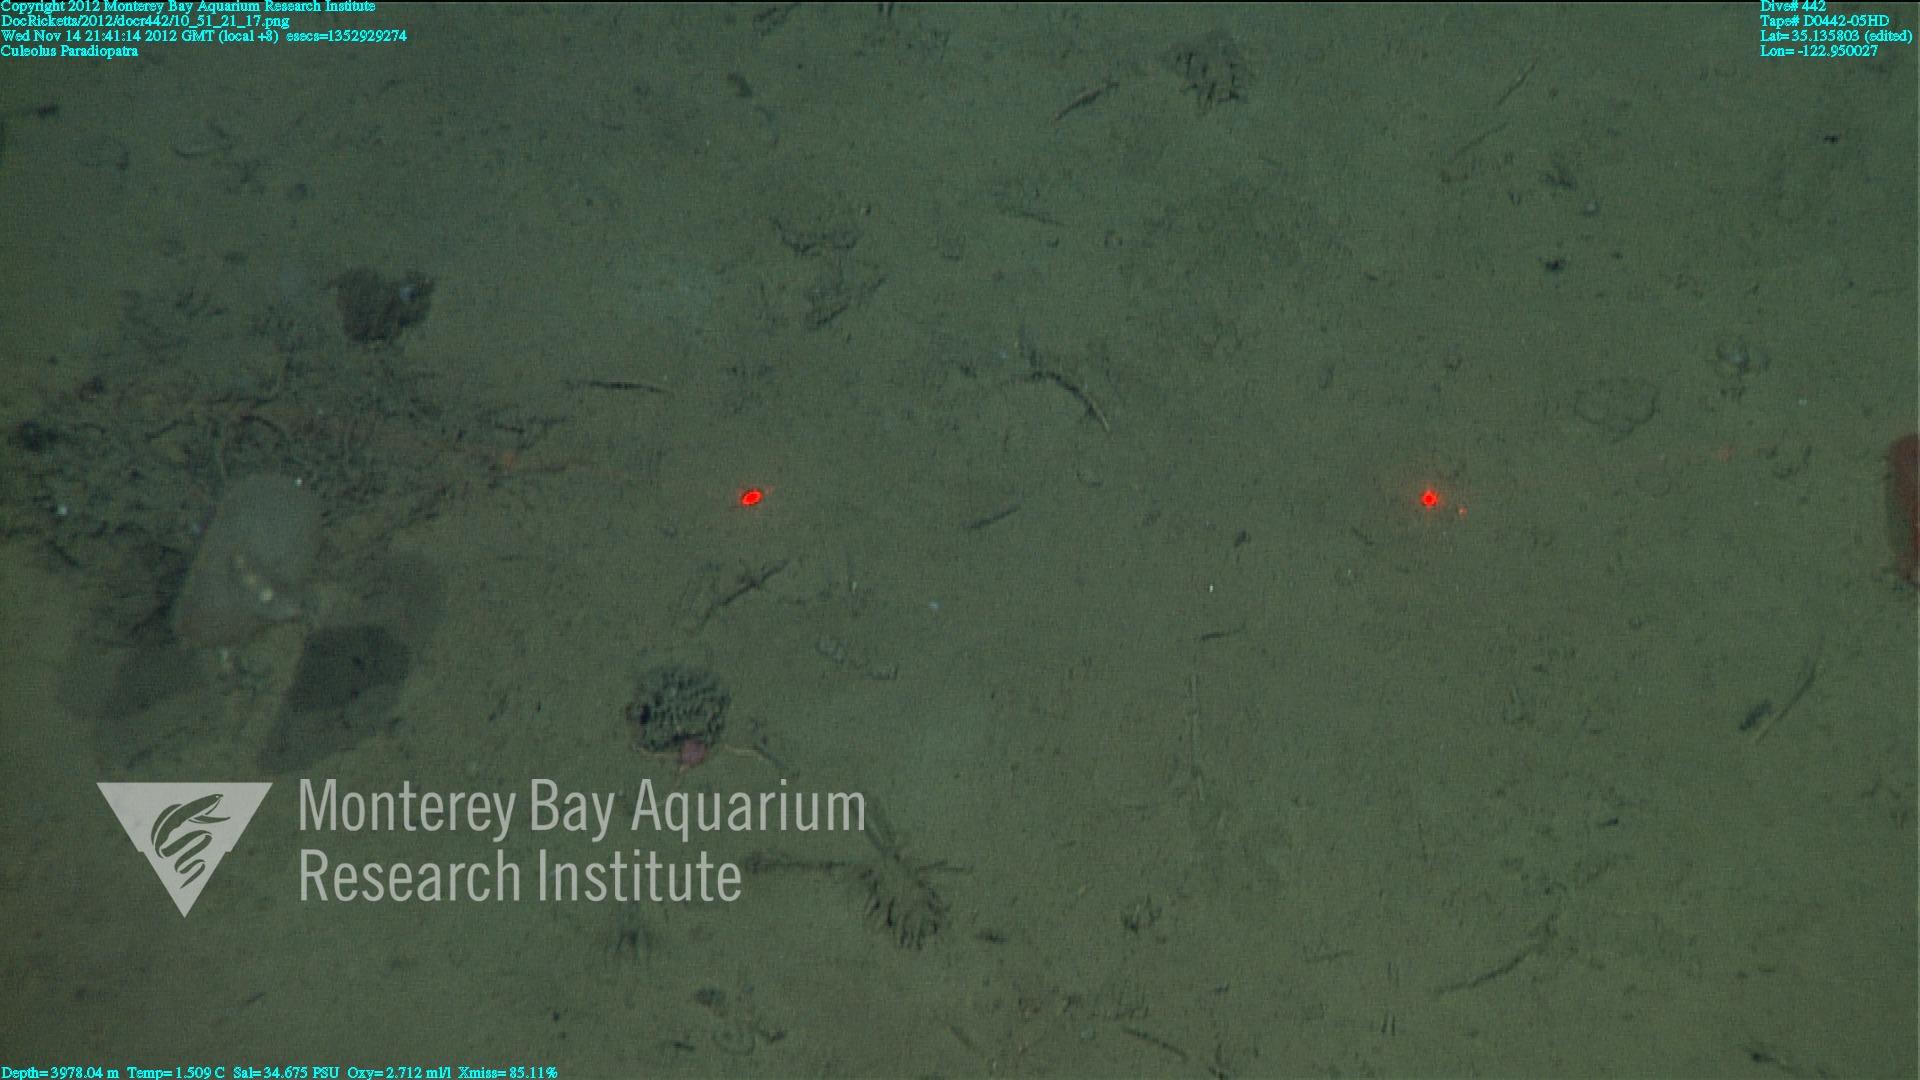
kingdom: Animalia
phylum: Porifera
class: Demospongiae
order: Poecilosclerida
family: Cladorhizidae
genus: Cladorhiza
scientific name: Cladorhiza
